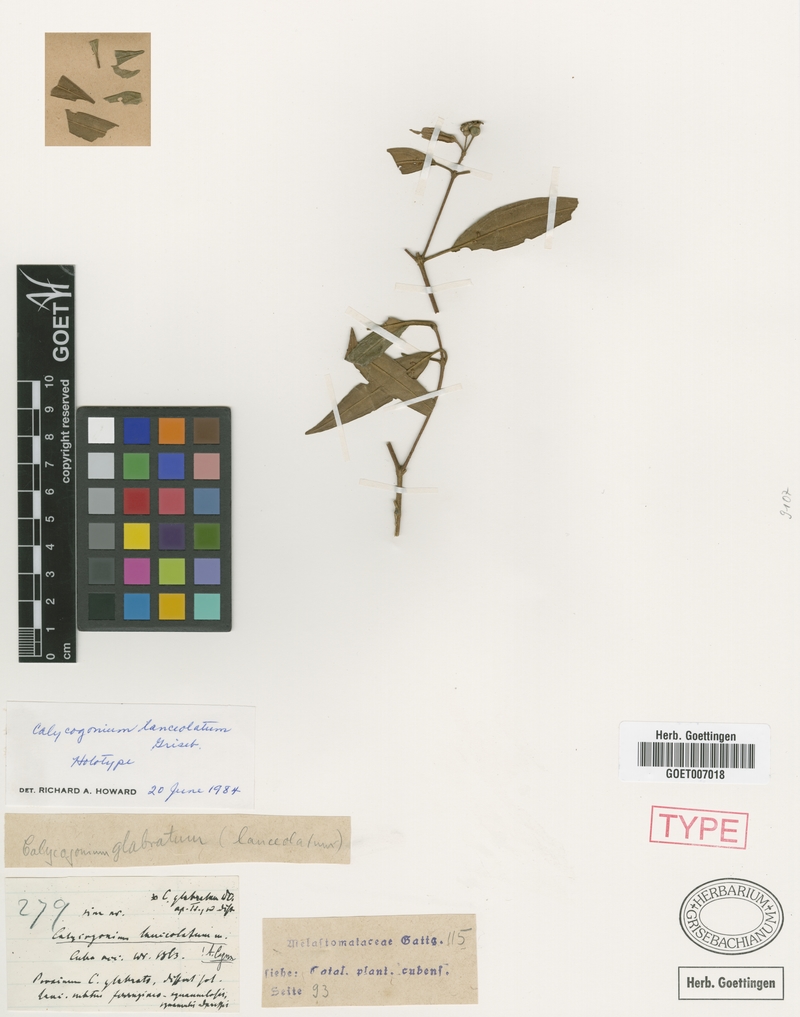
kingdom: Plantae
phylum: Tracheophyta
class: Magnoliopsida
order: Myrtales
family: Melastomataceae
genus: Miconia
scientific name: Miconia secundolanceolata
